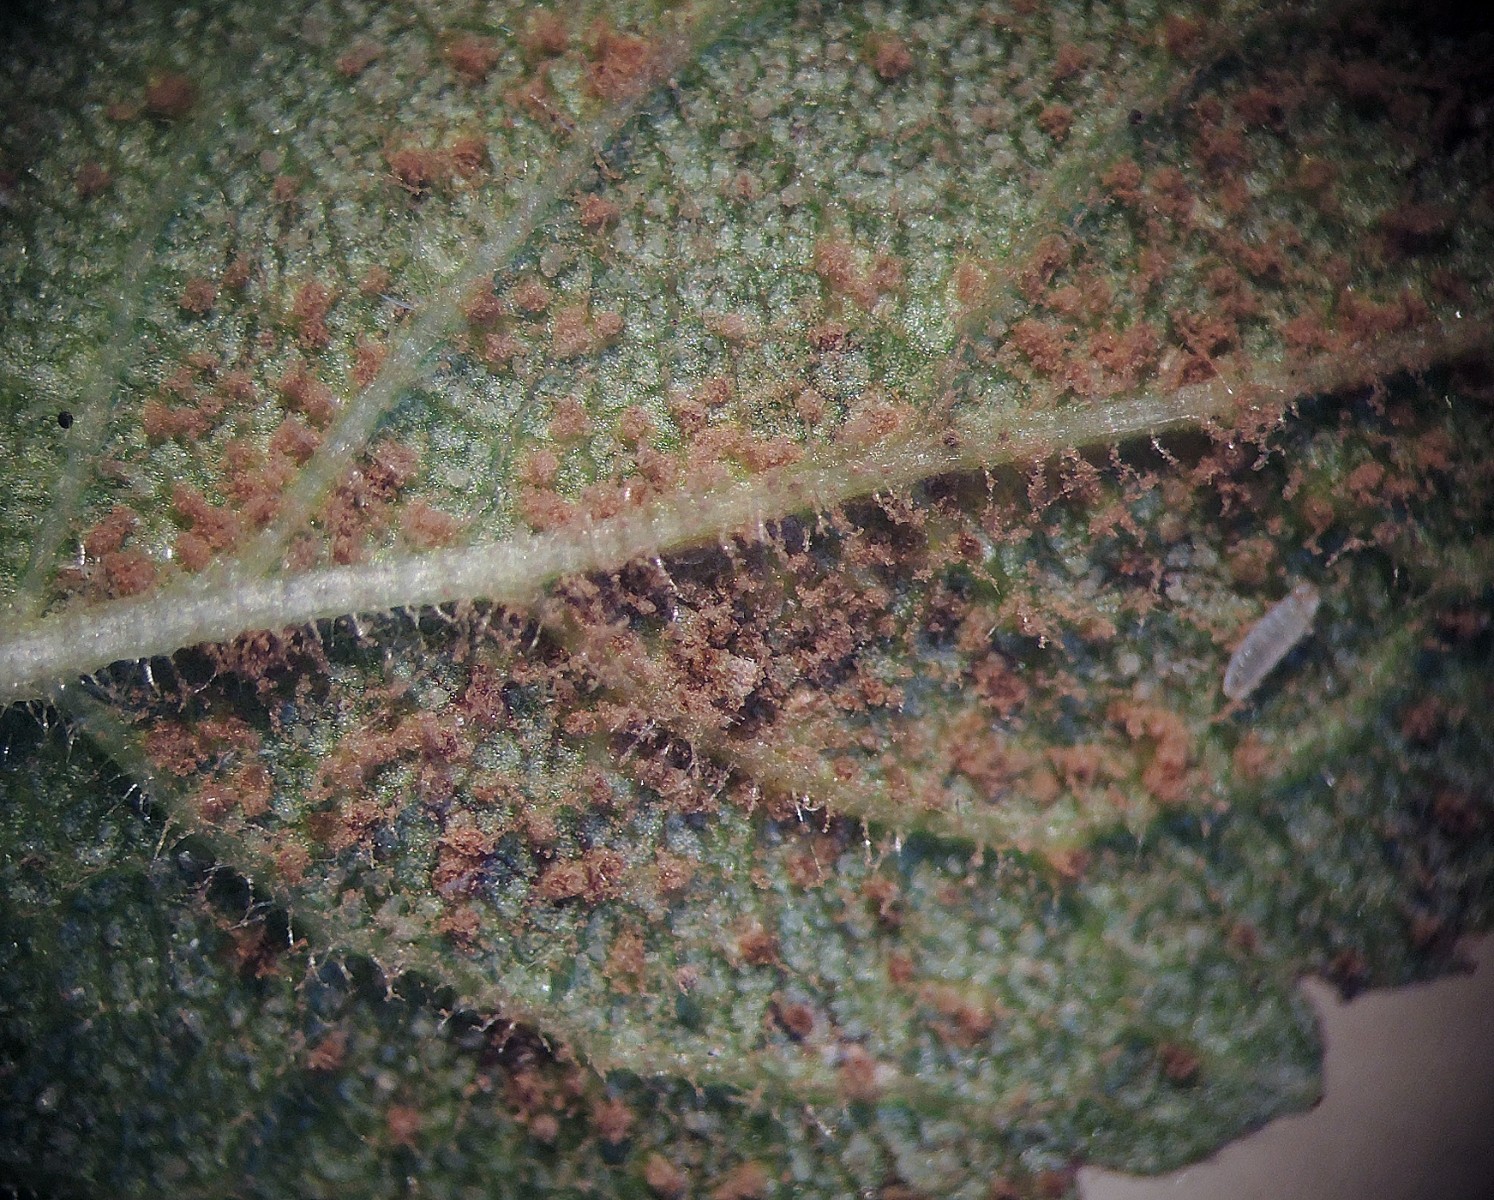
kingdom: Fungi
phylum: Basidiomycota
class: Pucciniomycetes
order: Pucciniales
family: Tranzscheliaceae
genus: Tranzschelia
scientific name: Tranzschelia pruni-spinosae
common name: Blackthorn rust
